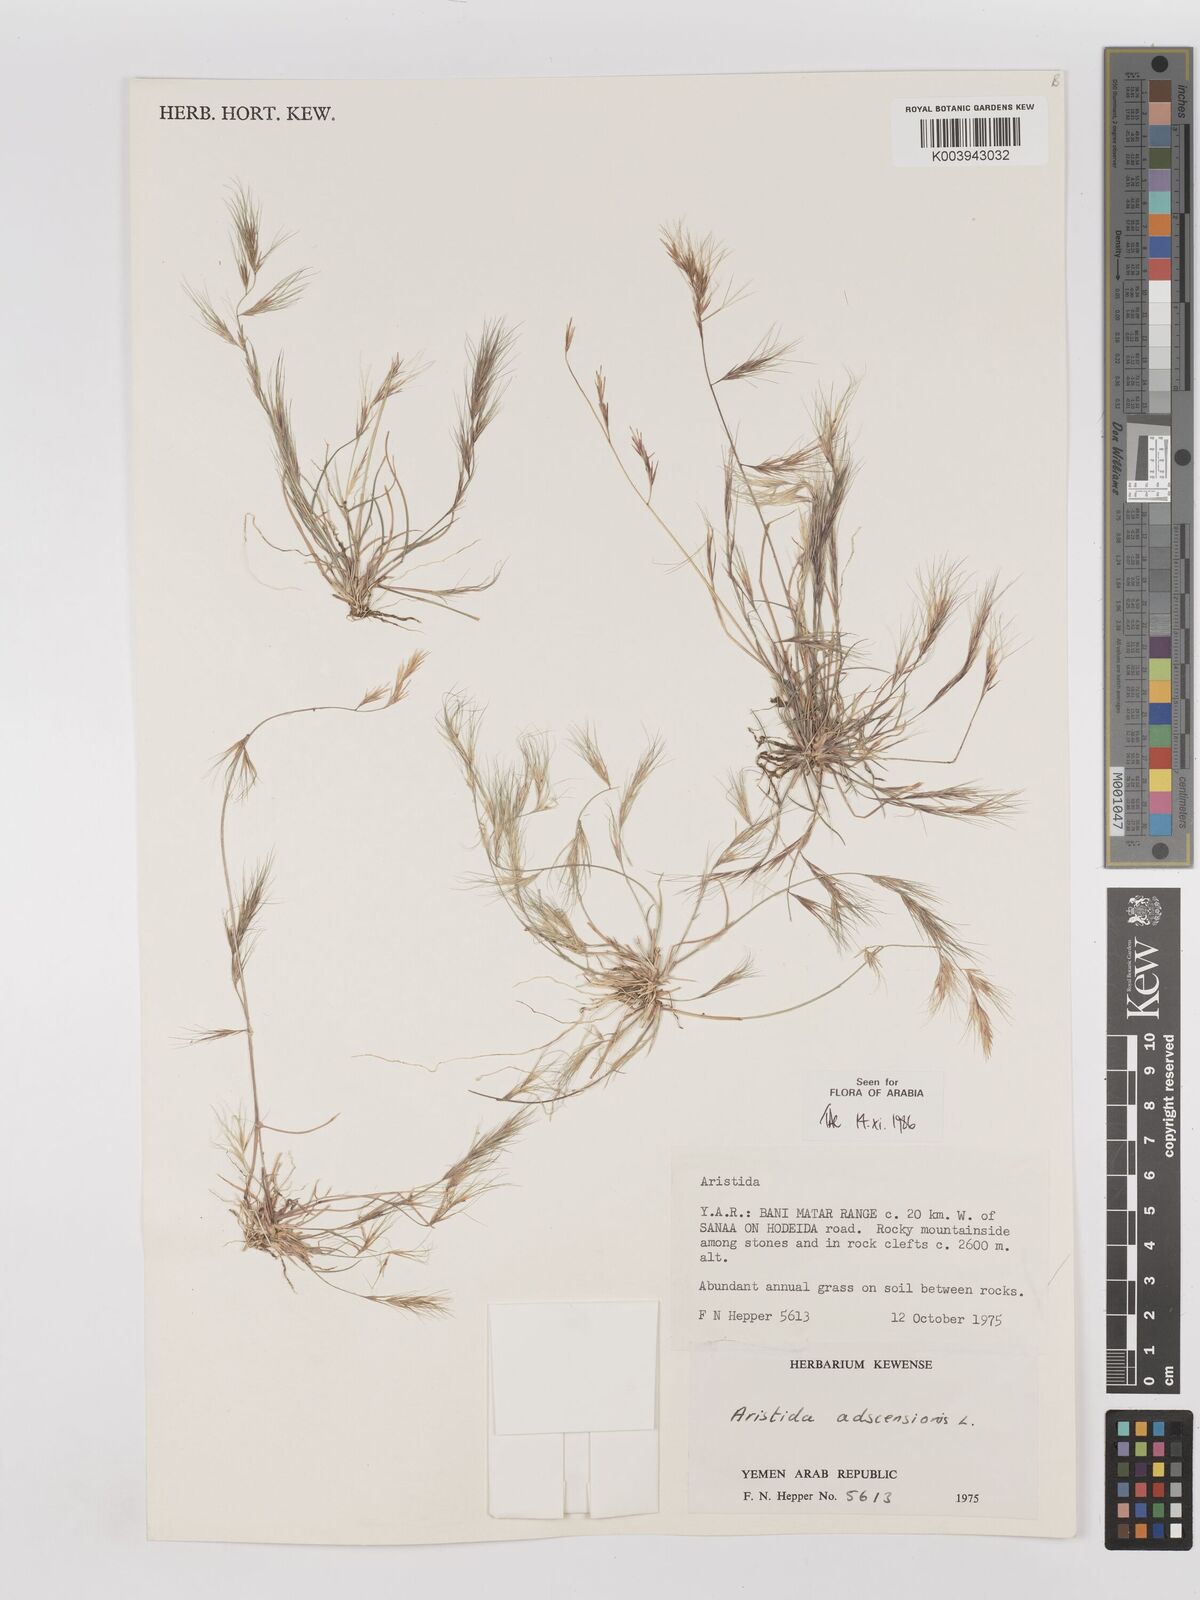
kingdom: Plantae
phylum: Tracheophyta
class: Liliopsida
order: Poales
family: Poaceae
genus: Aristida
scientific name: Aristida adscensionis
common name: Sixweeks threeawn
